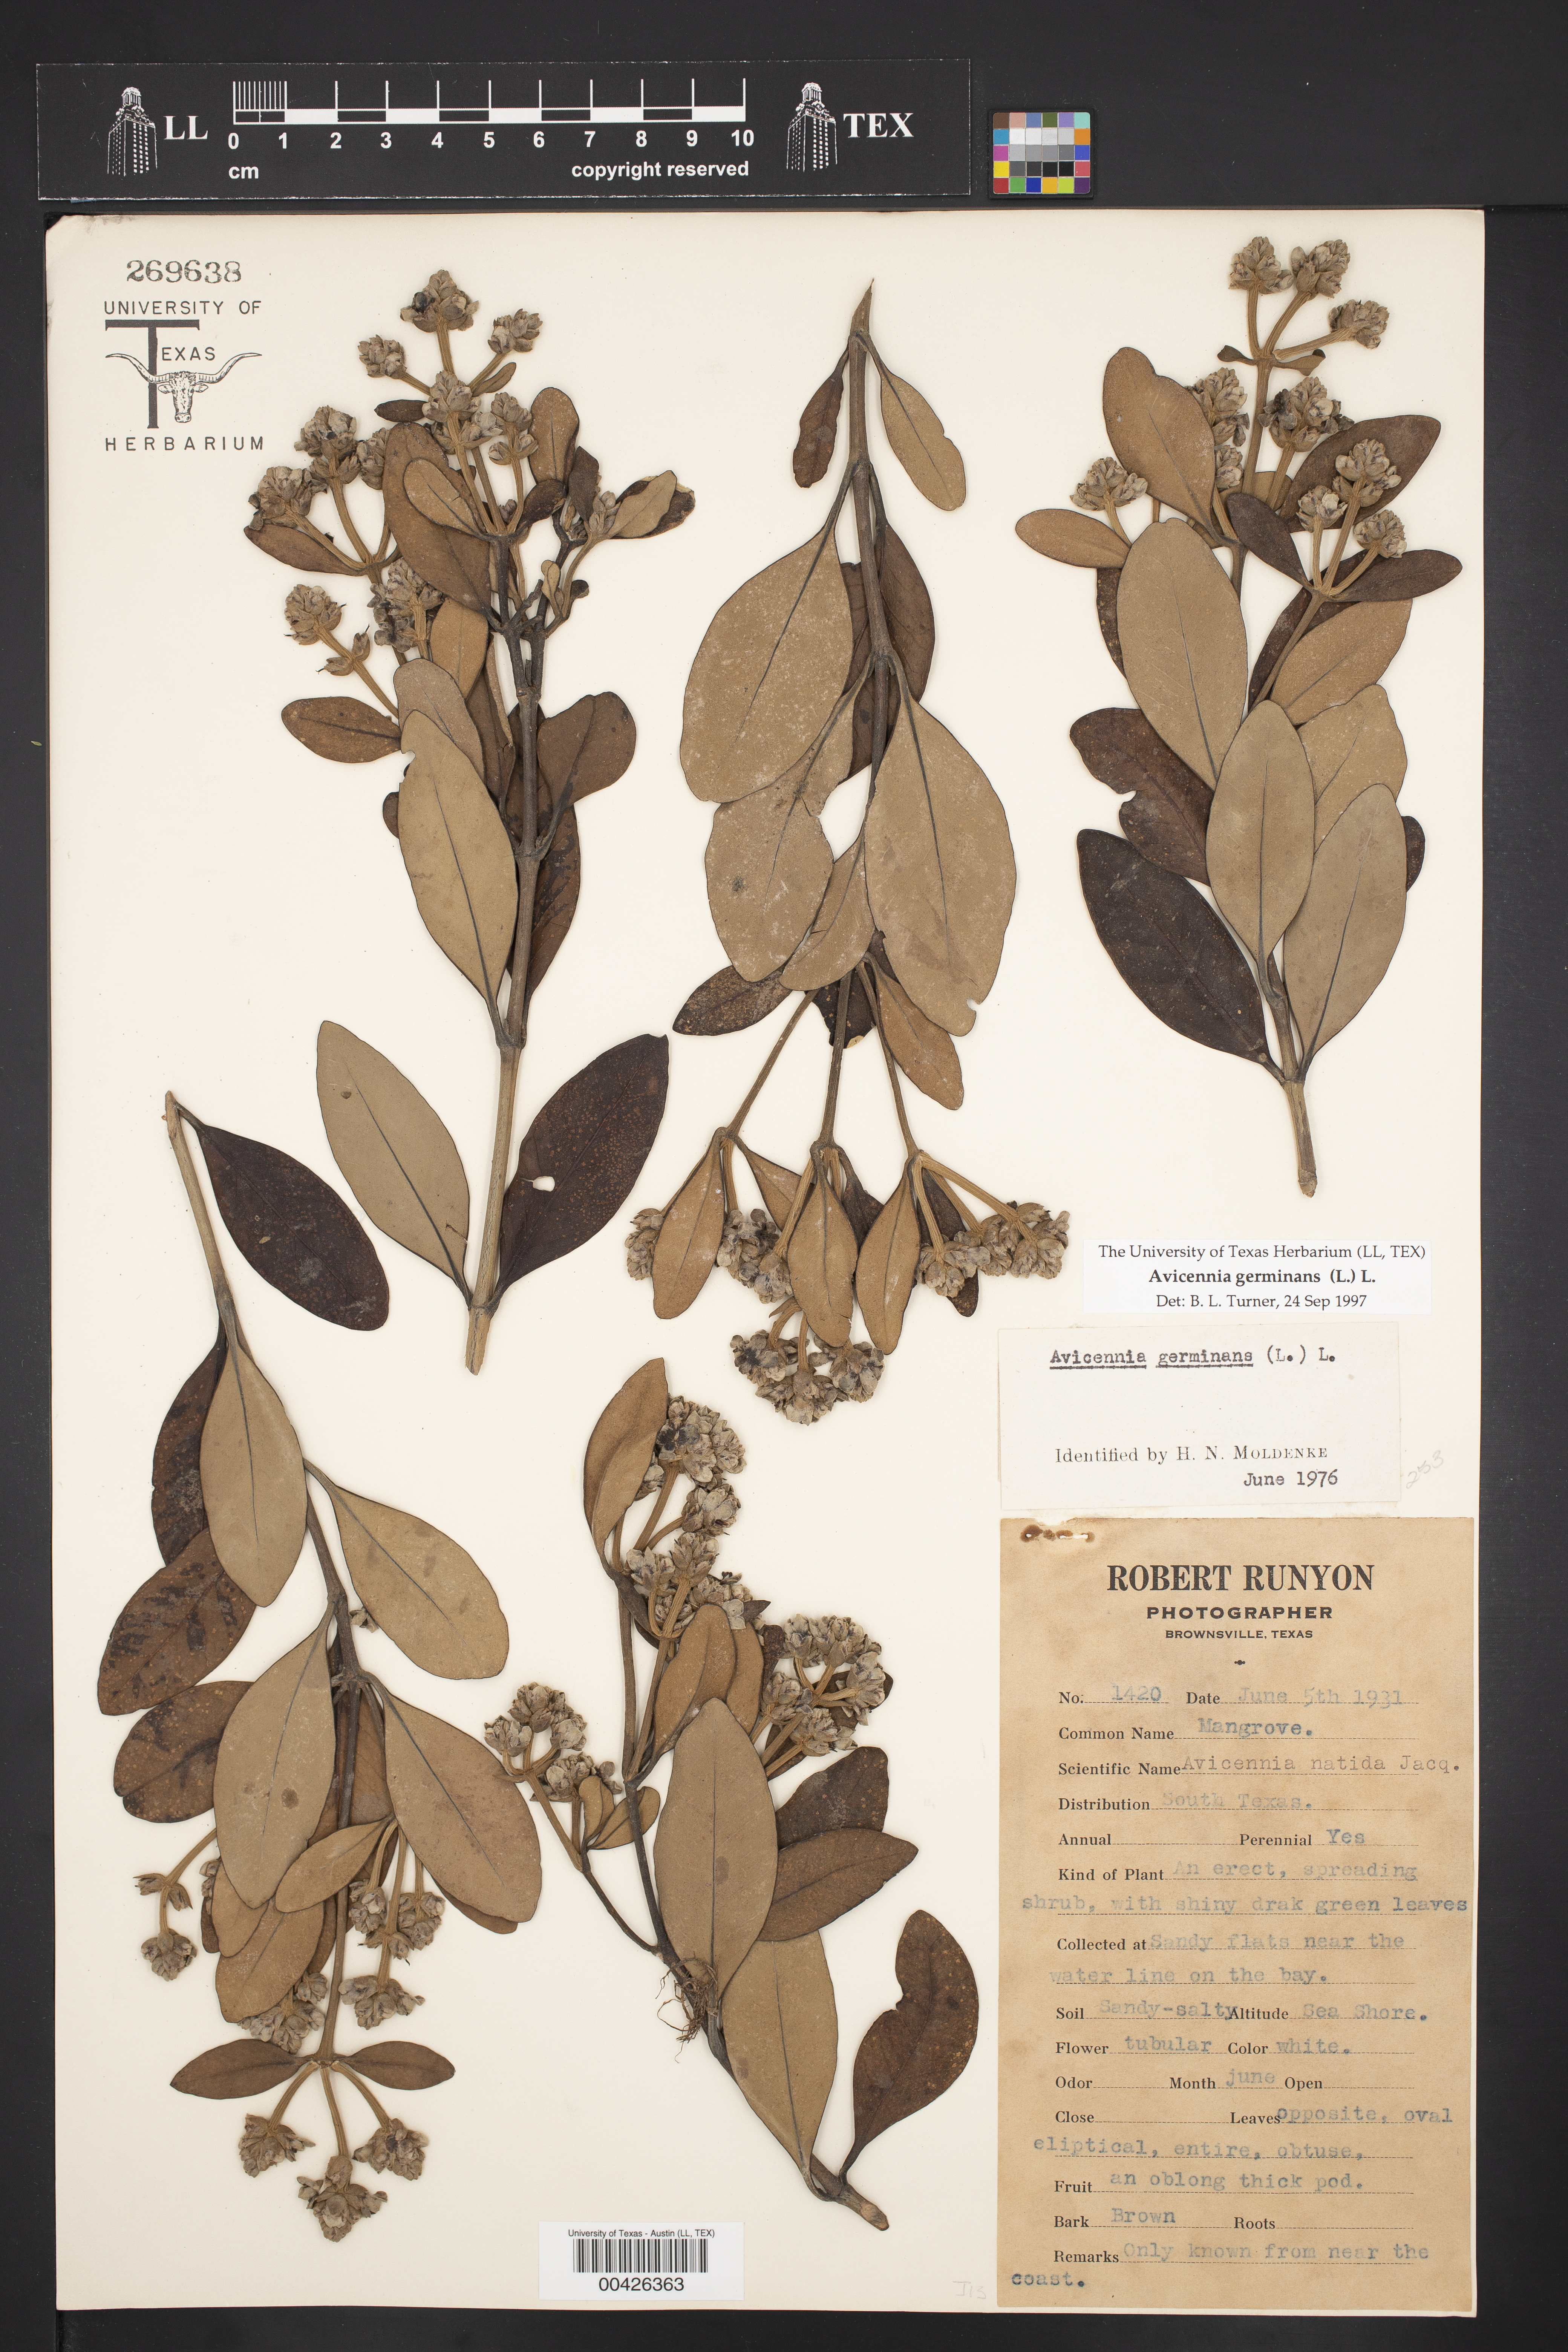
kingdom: Plantae
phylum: Tracheophyta
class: Magnoliopsida
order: Lamiales
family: Acanthaceae
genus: Avicennia
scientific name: Avicennia germinans
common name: Black mangrove
